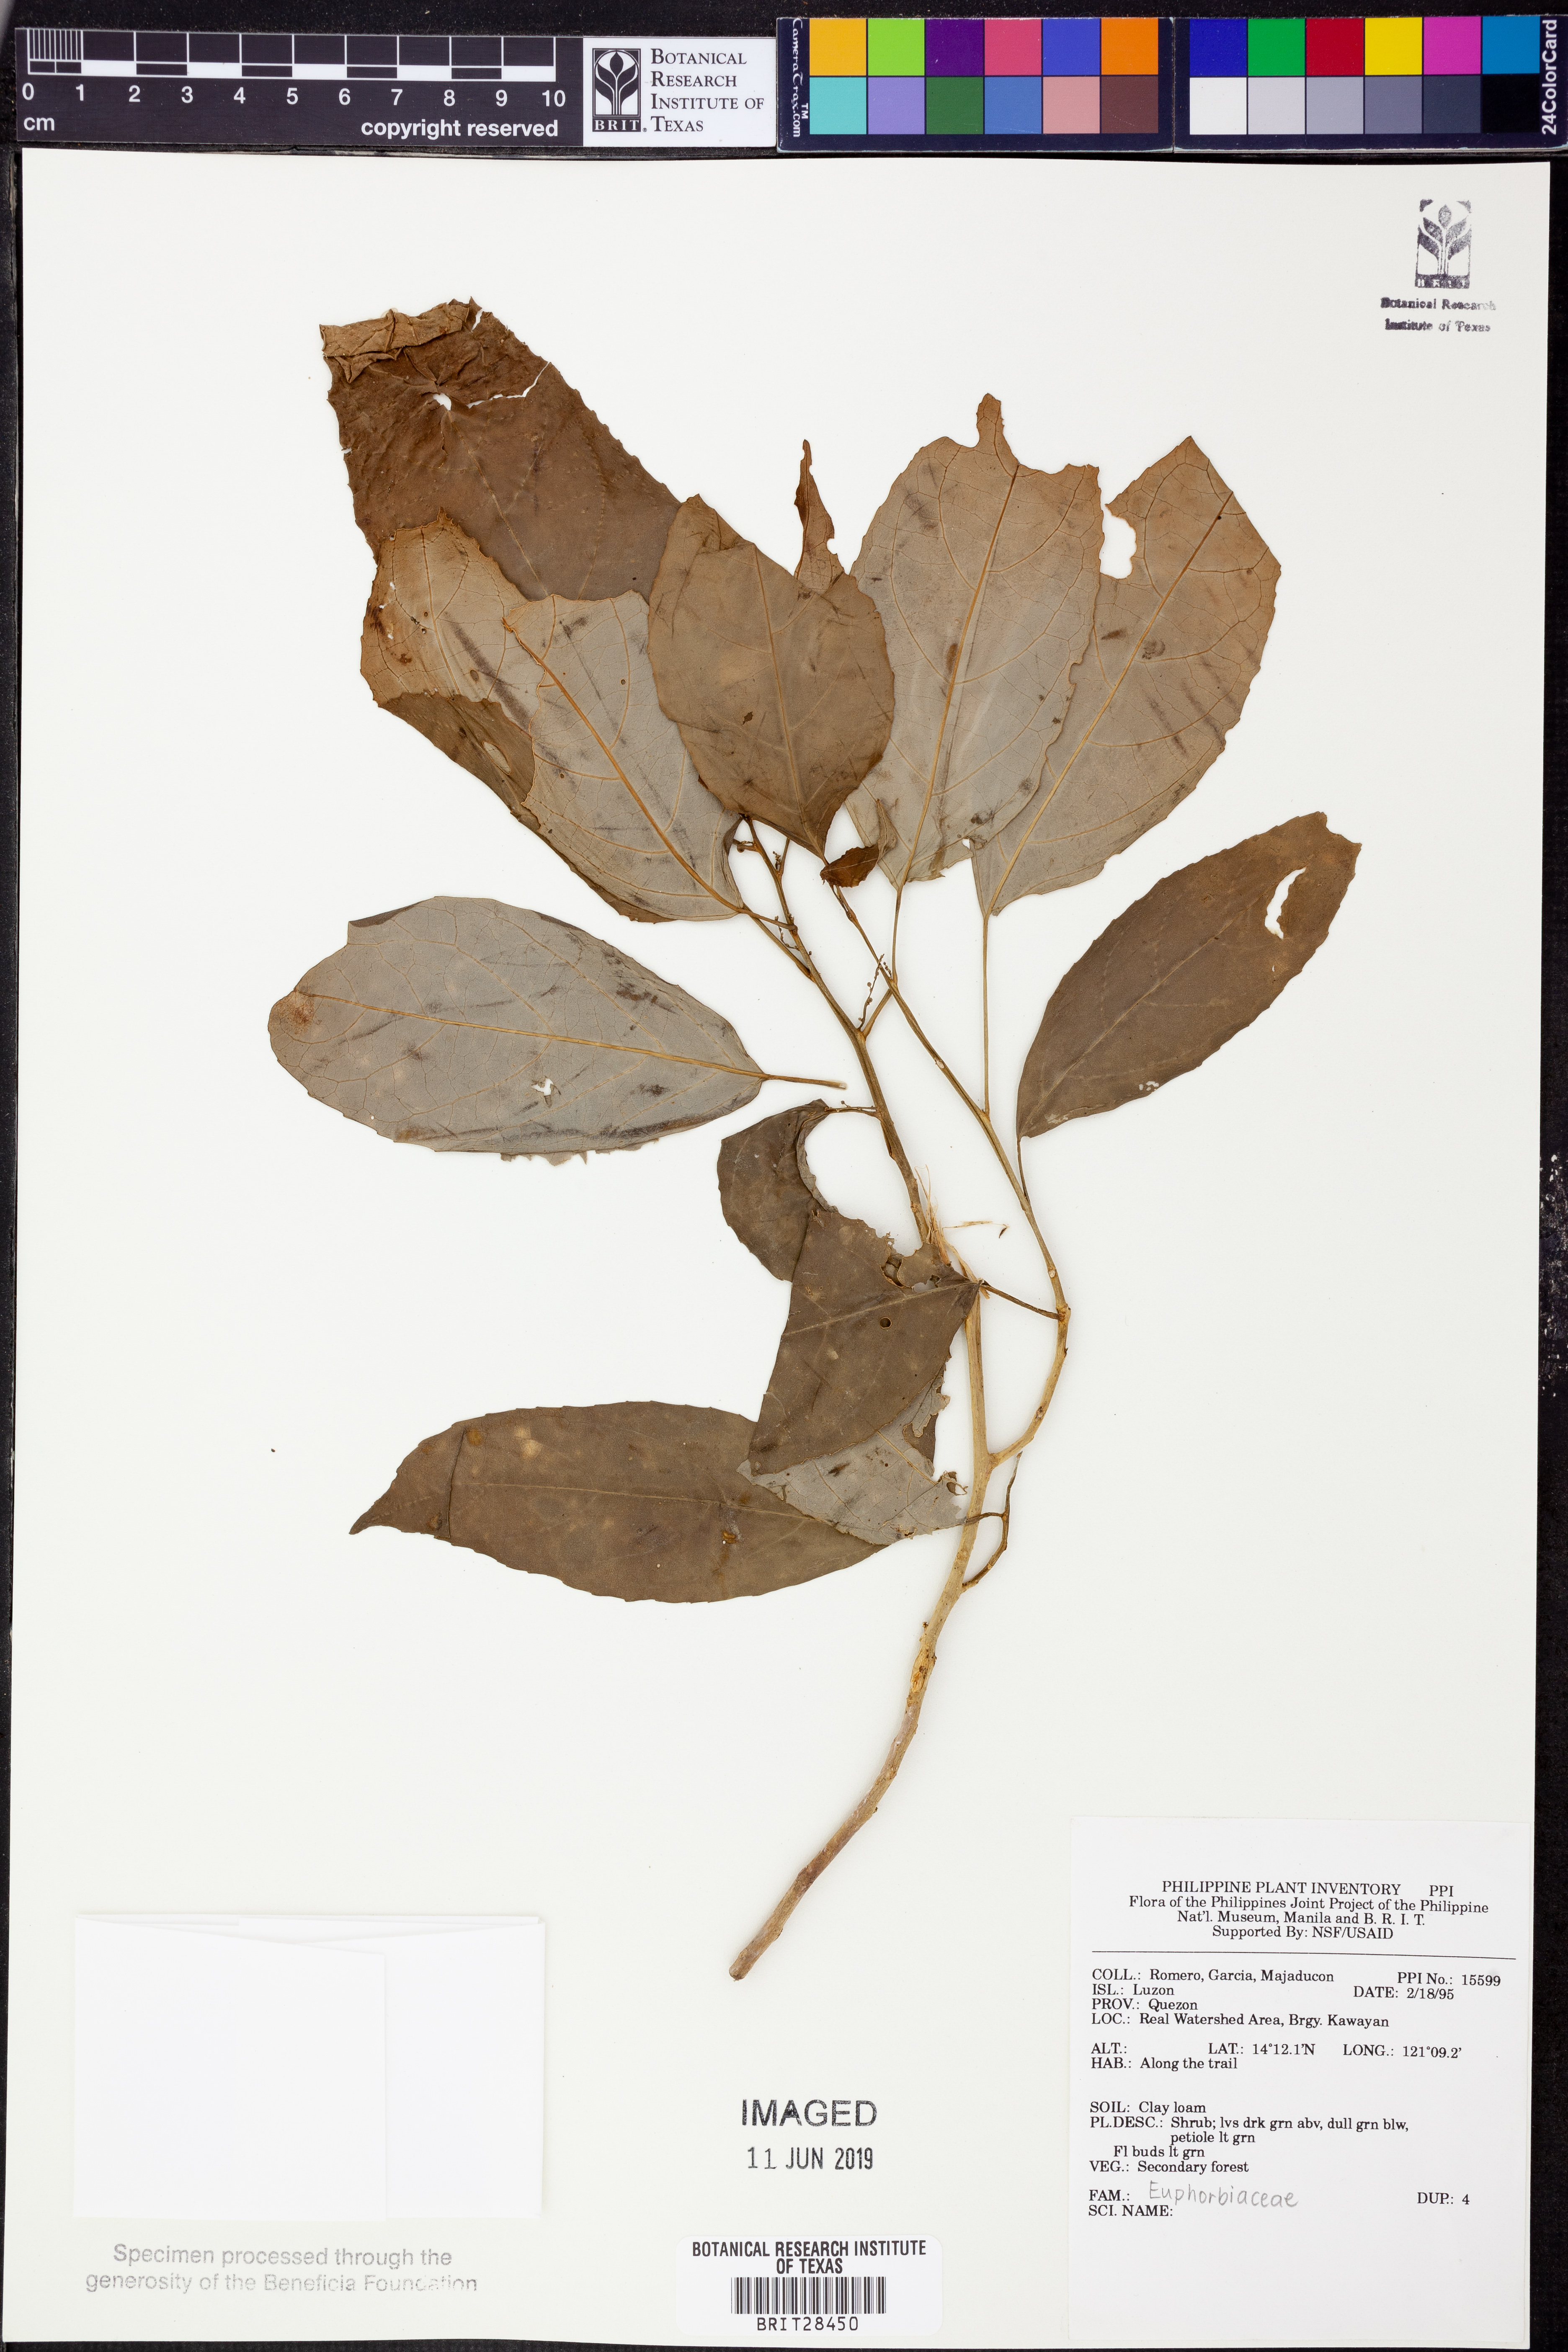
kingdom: Plantae
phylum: Tracheophyta
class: Magnoliopsida
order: Malpighiales
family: Euphorbiaceae
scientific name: Euphorbiaceae
